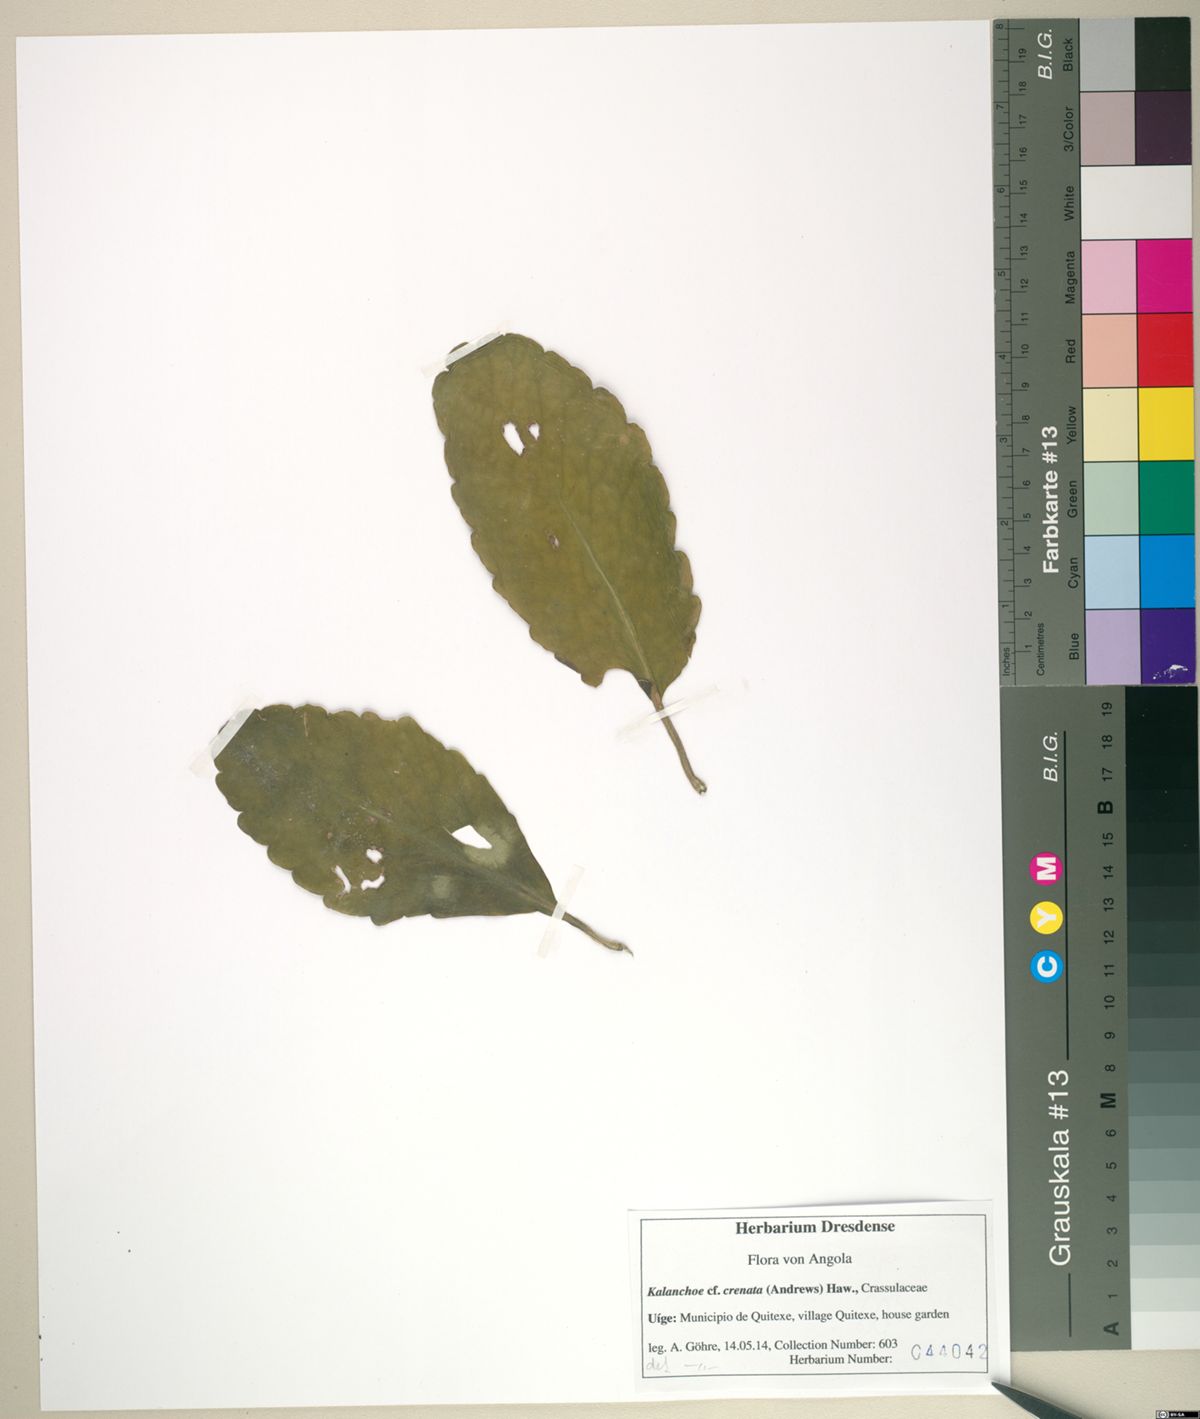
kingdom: Plantae
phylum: Tracheophyta
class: Magnoliopsida
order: Saxifragales
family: Crassulaceae
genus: Kalanchoe
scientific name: Kalanchoe crenata
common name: Neverdie
